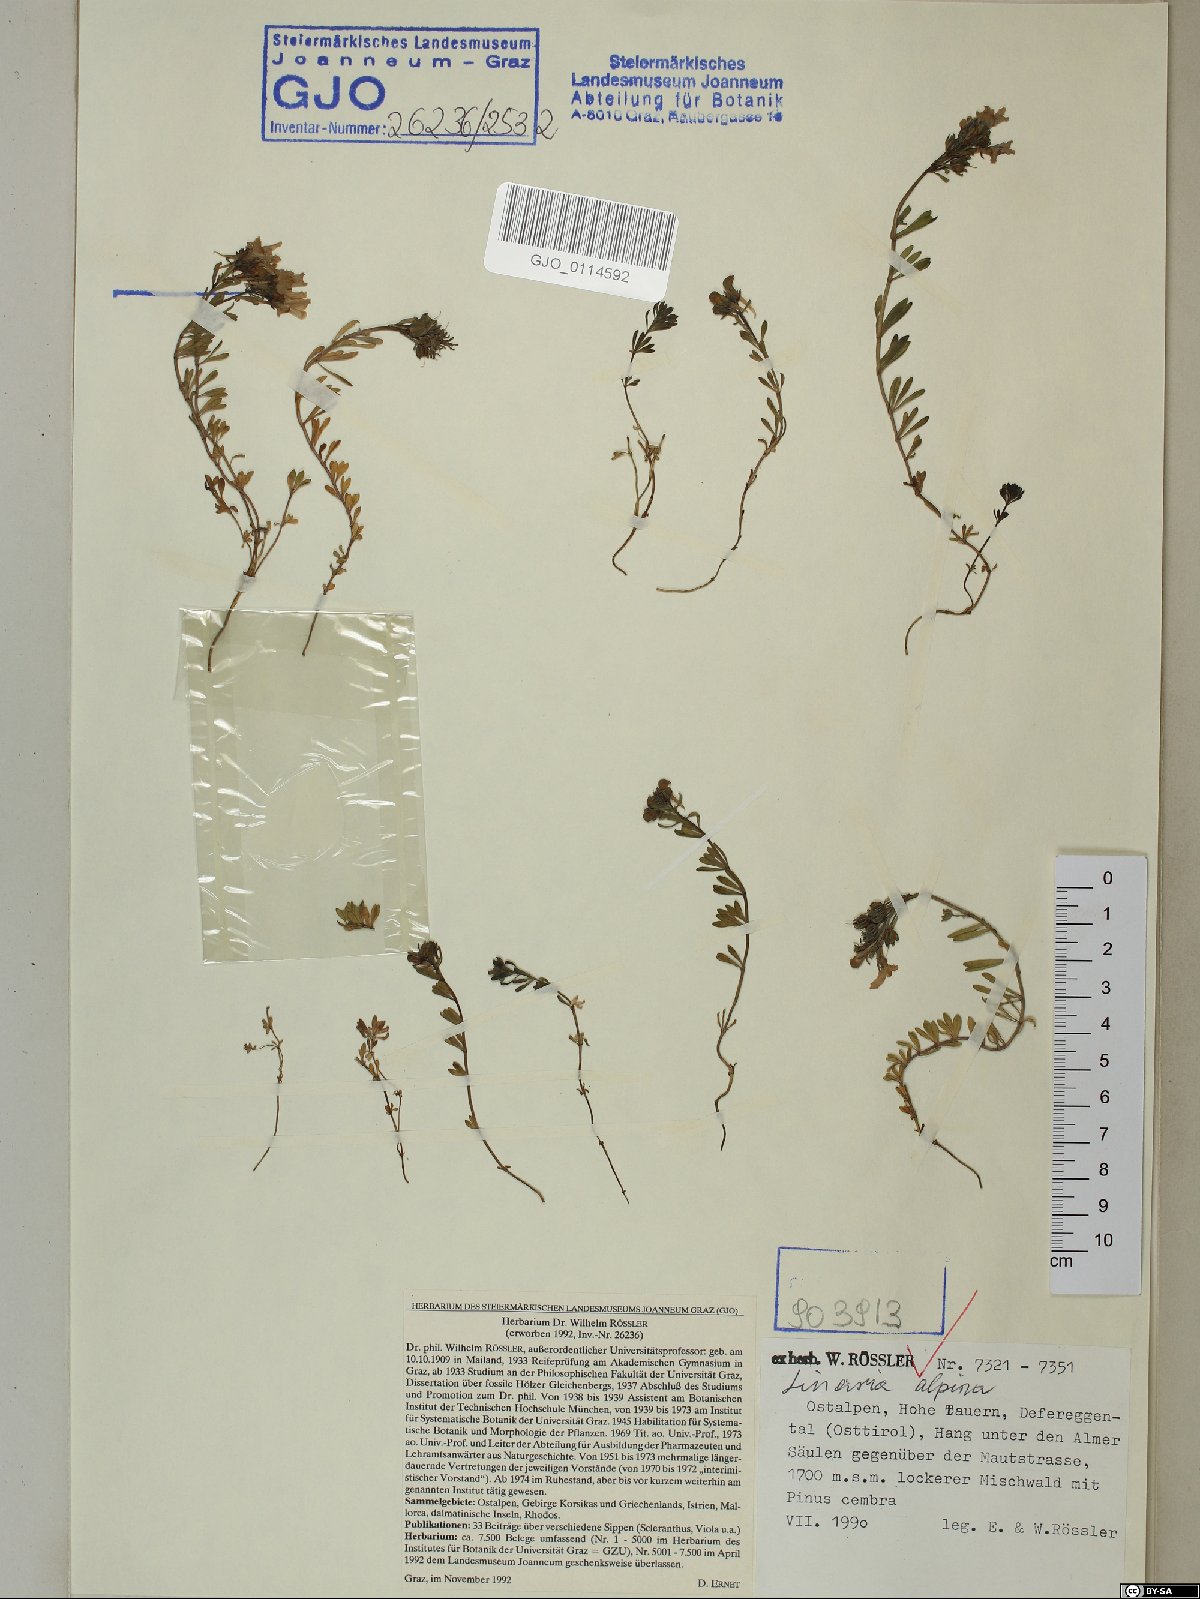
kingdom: Plantae
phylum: Tracheophyta
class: Magnoliopsida
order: Lamiales
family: Plantaginaceae
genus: Linaria
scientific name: Linaria alpina
